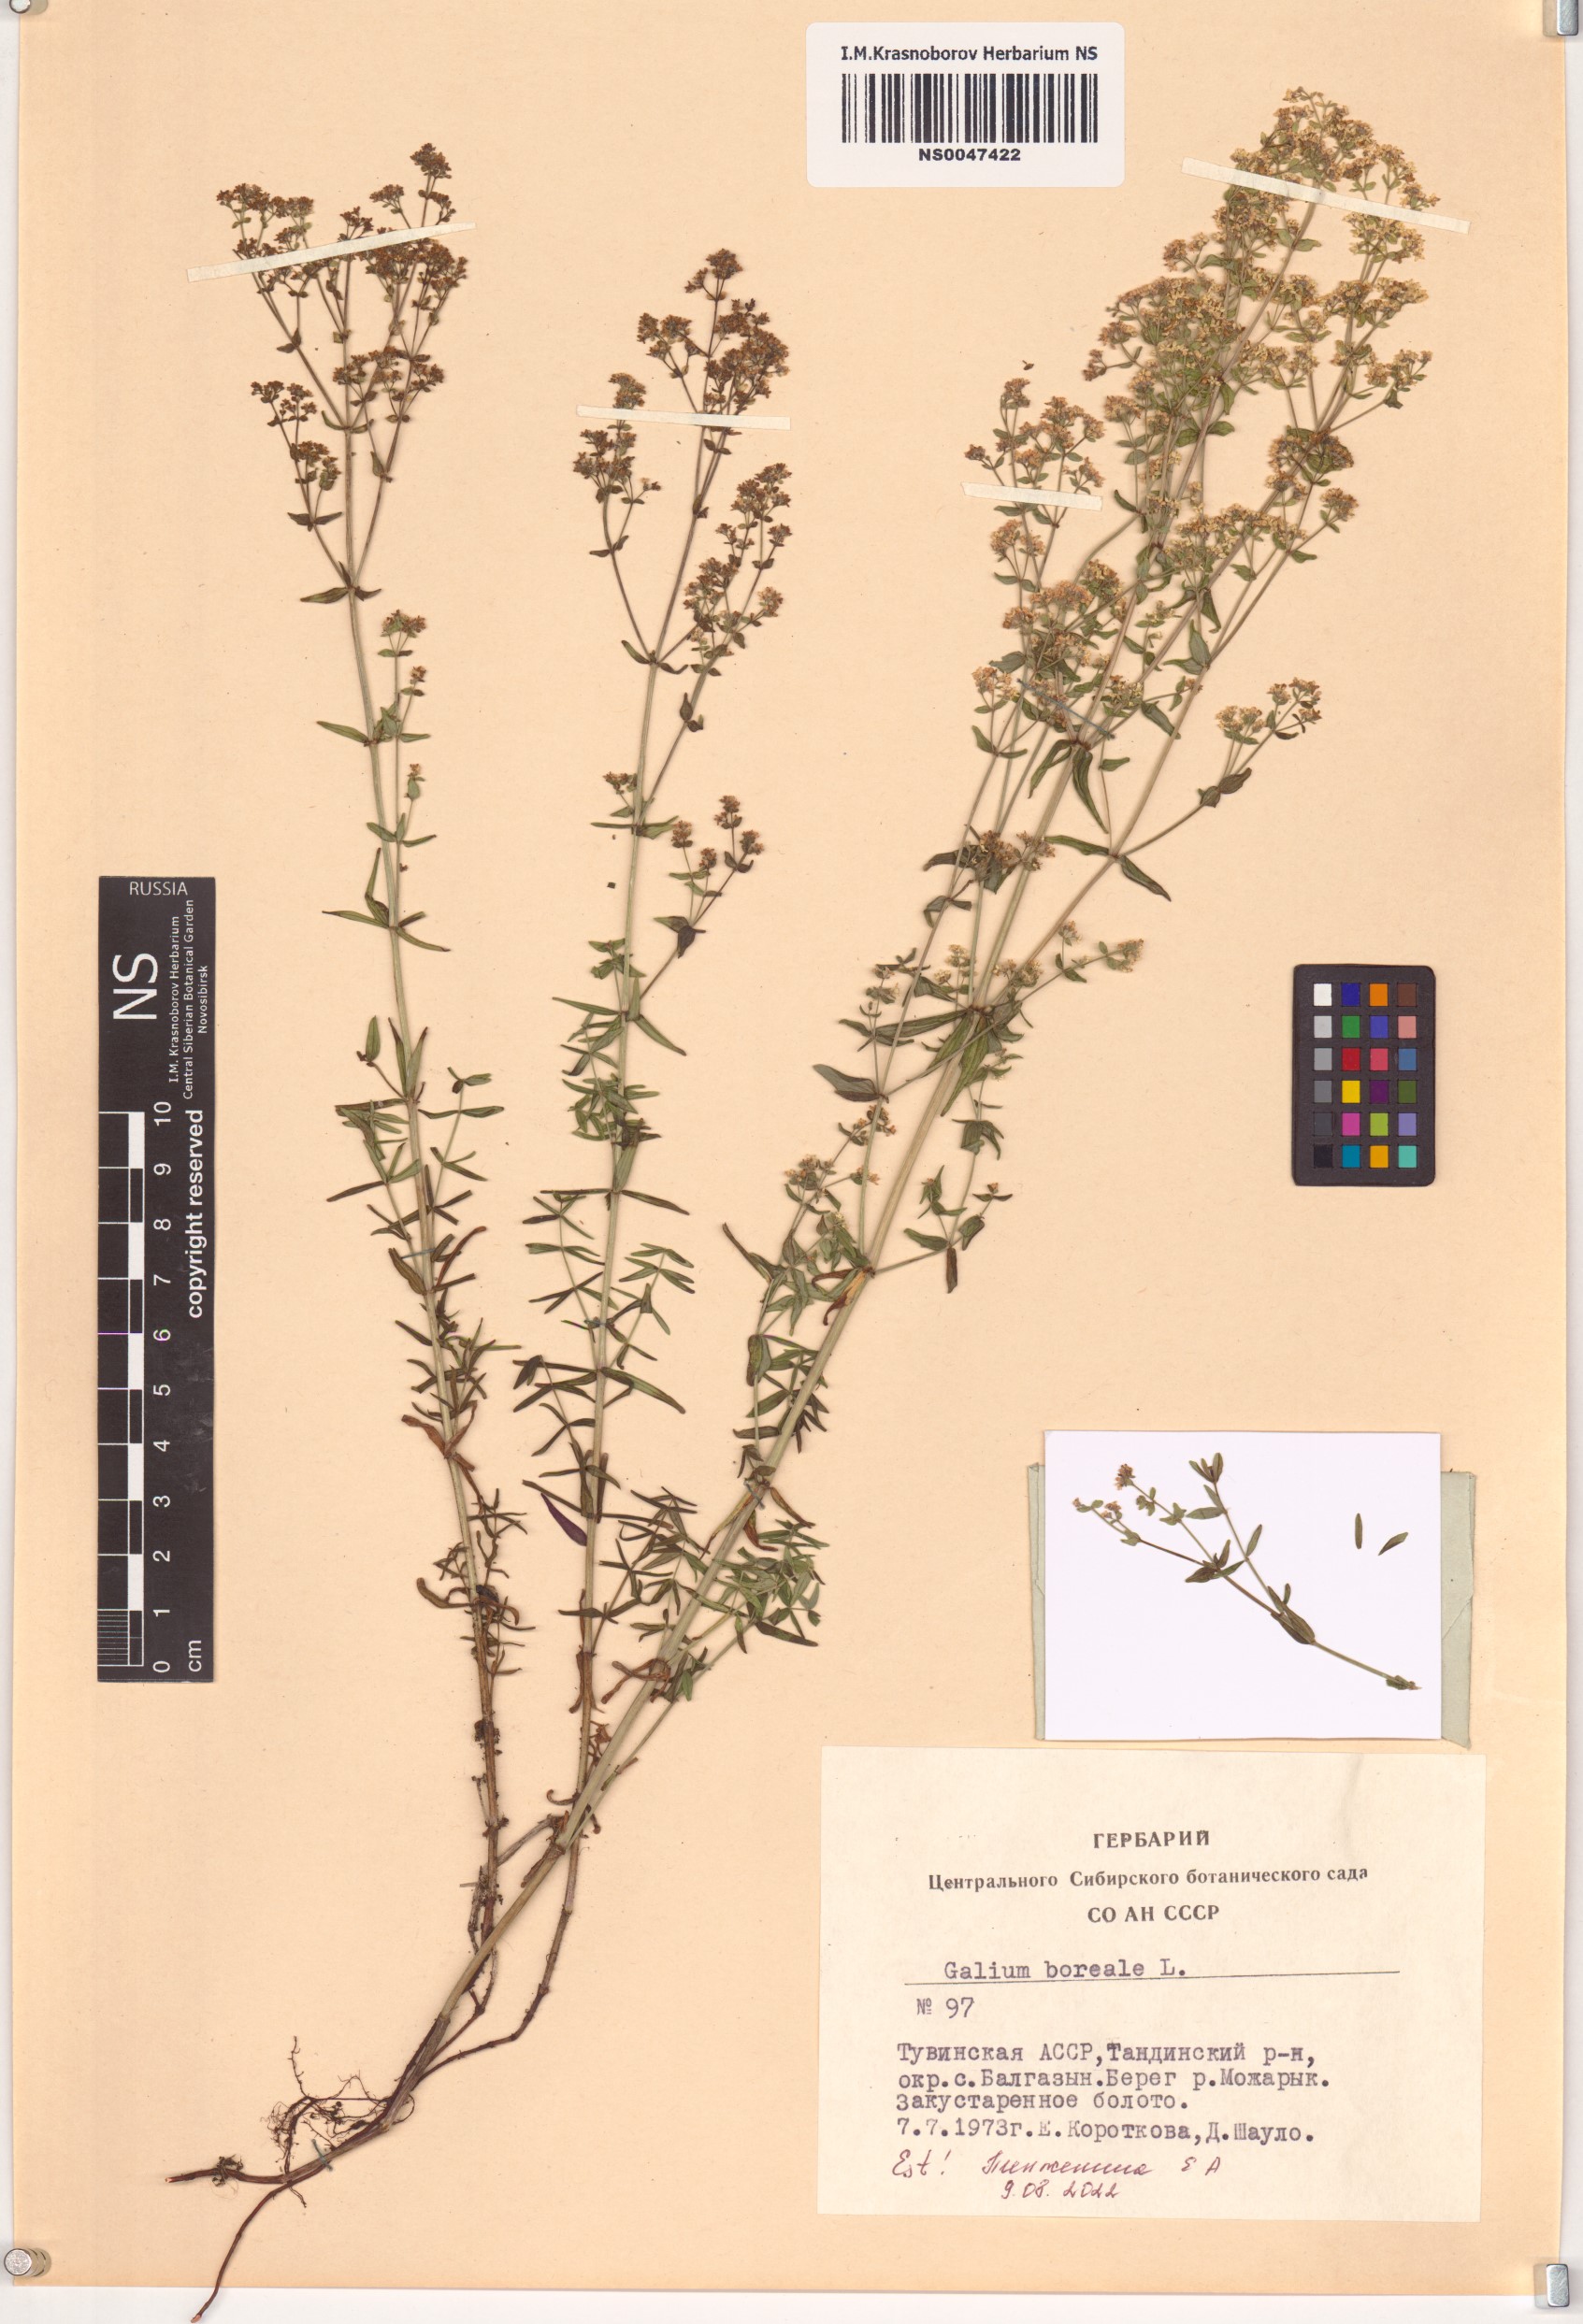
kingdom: Plantae
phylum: Tracheophyta
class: Magnoliopsida
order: Gentianales
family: Rubiaceae
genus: Galium
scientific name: Galium boreale
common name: Northern bedstraw
